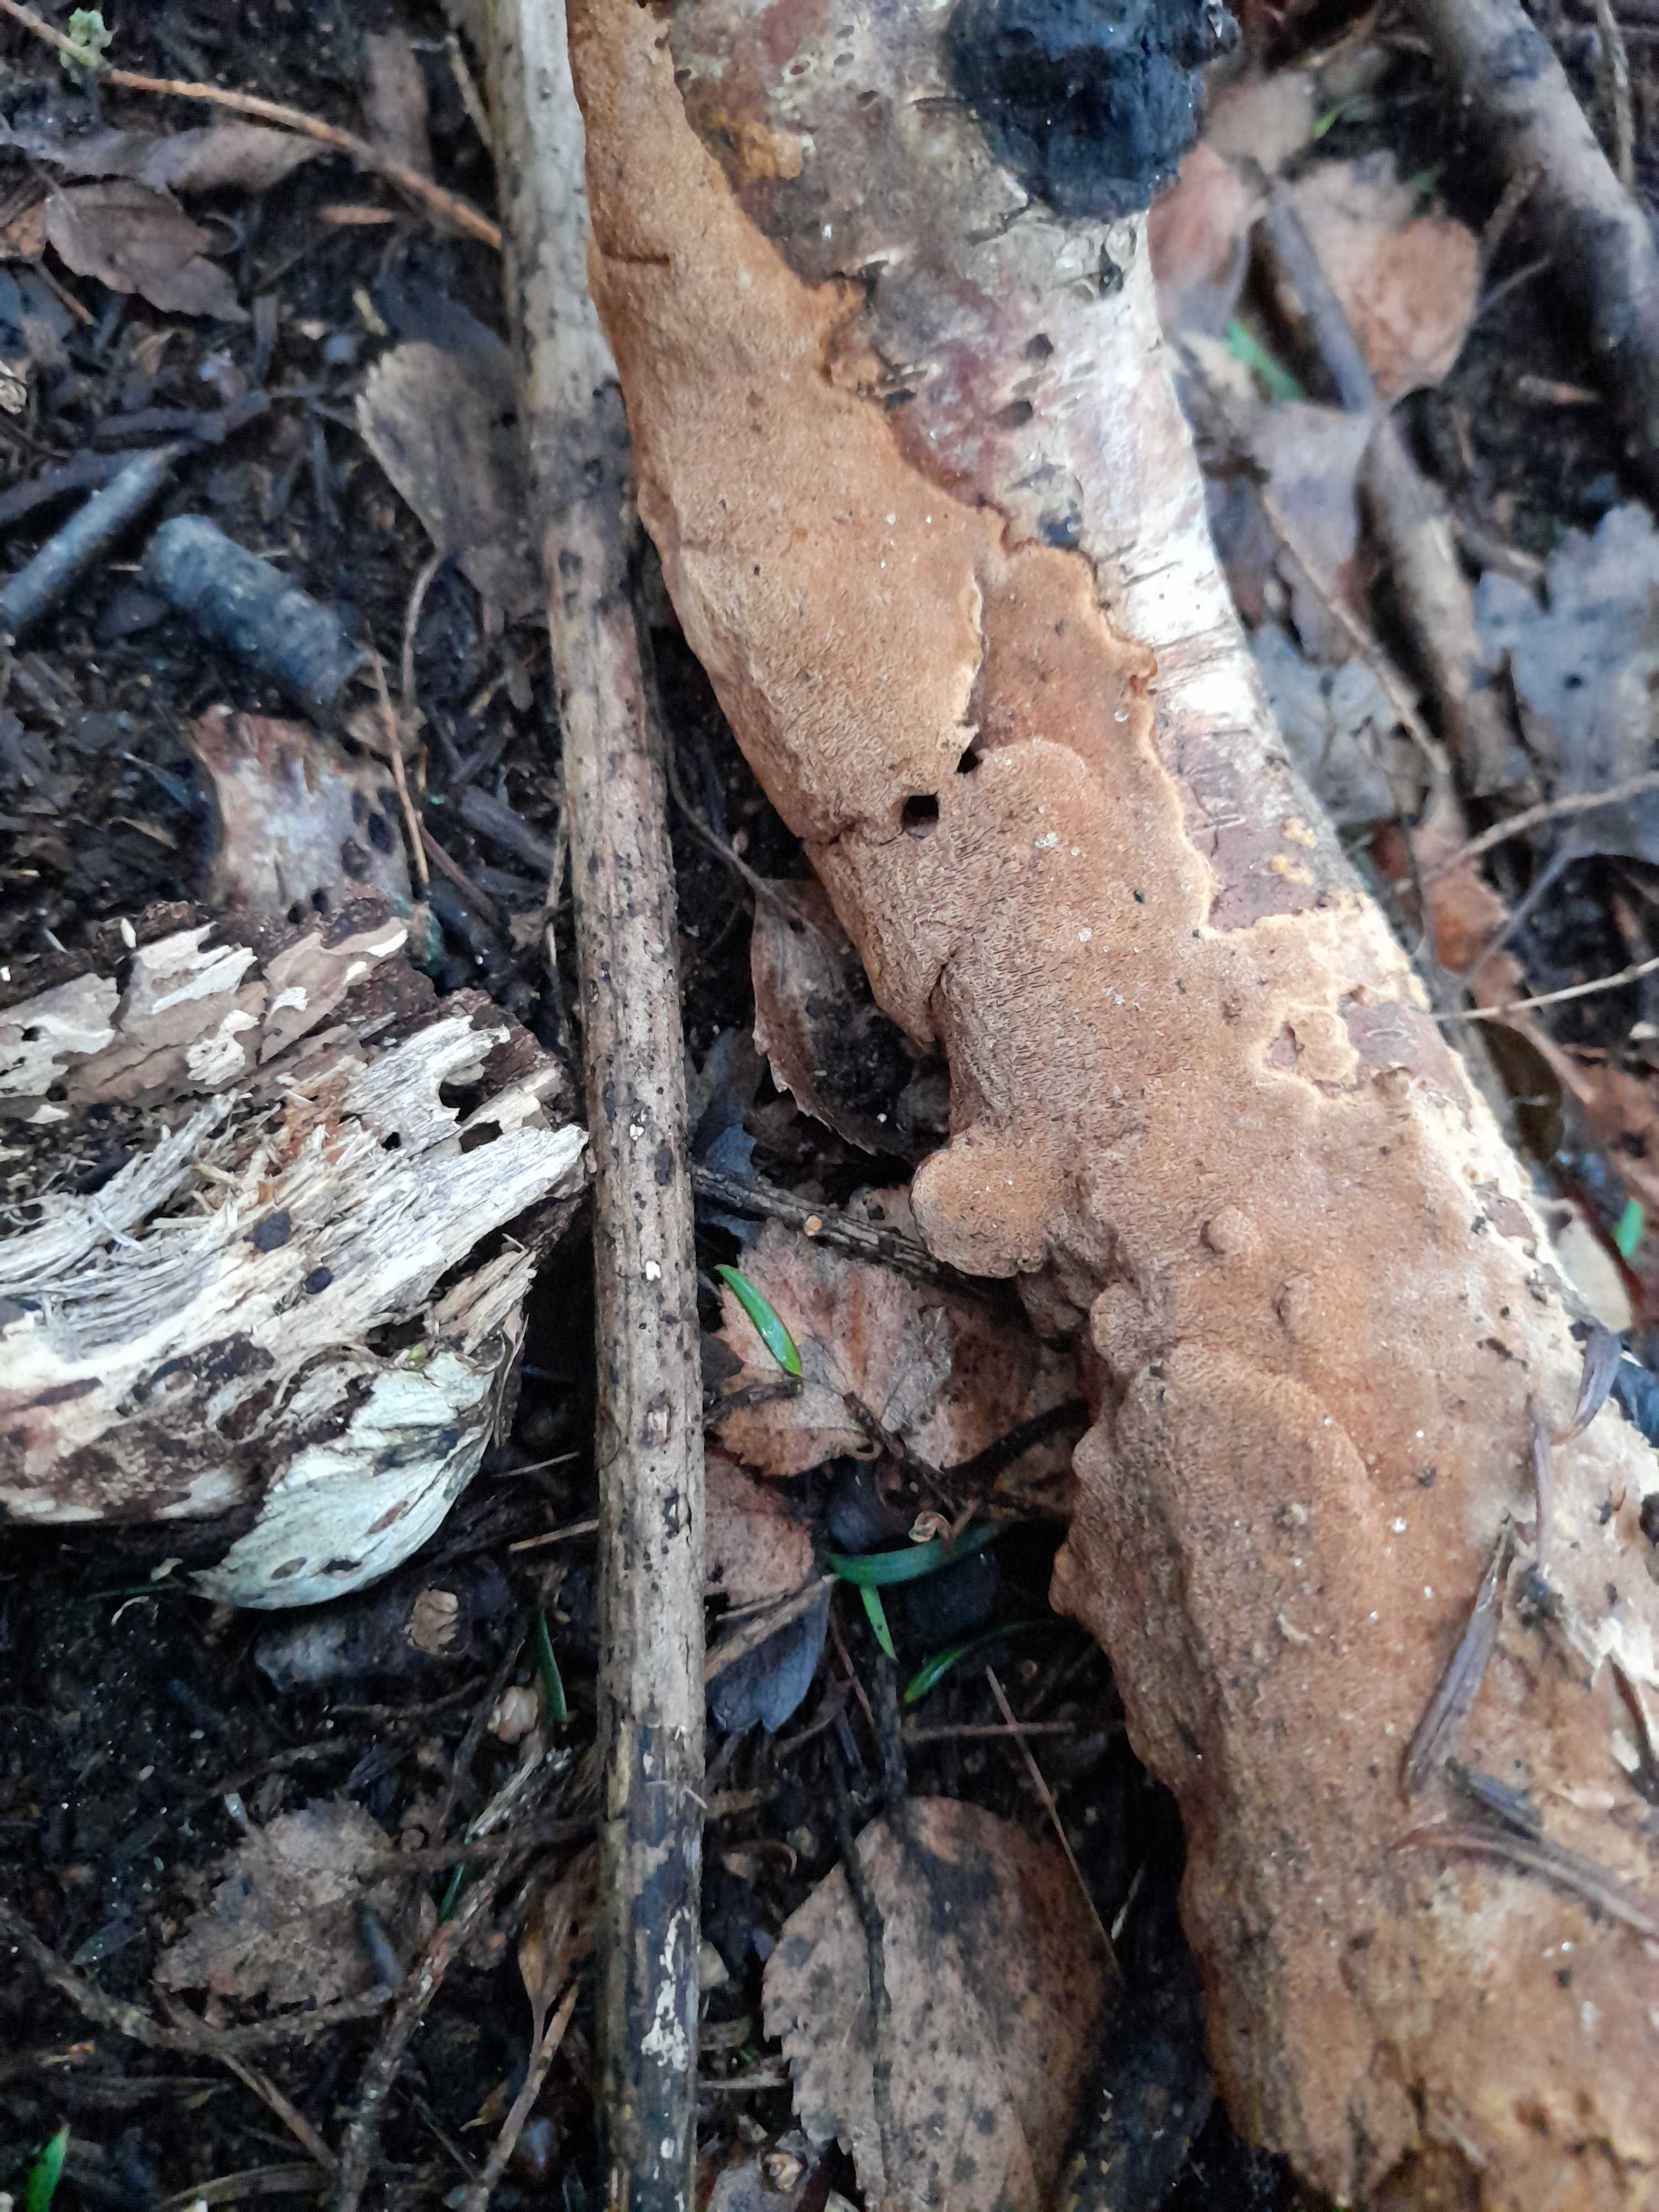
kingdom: Fungi
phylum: Basidiomycota
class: Agaricomycetes
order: Hymenochaetales
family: Hymenochaetaceae
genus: Fuscoporia
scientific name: Fuscoporia ferrea
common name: skorpe-ildporesvamp
